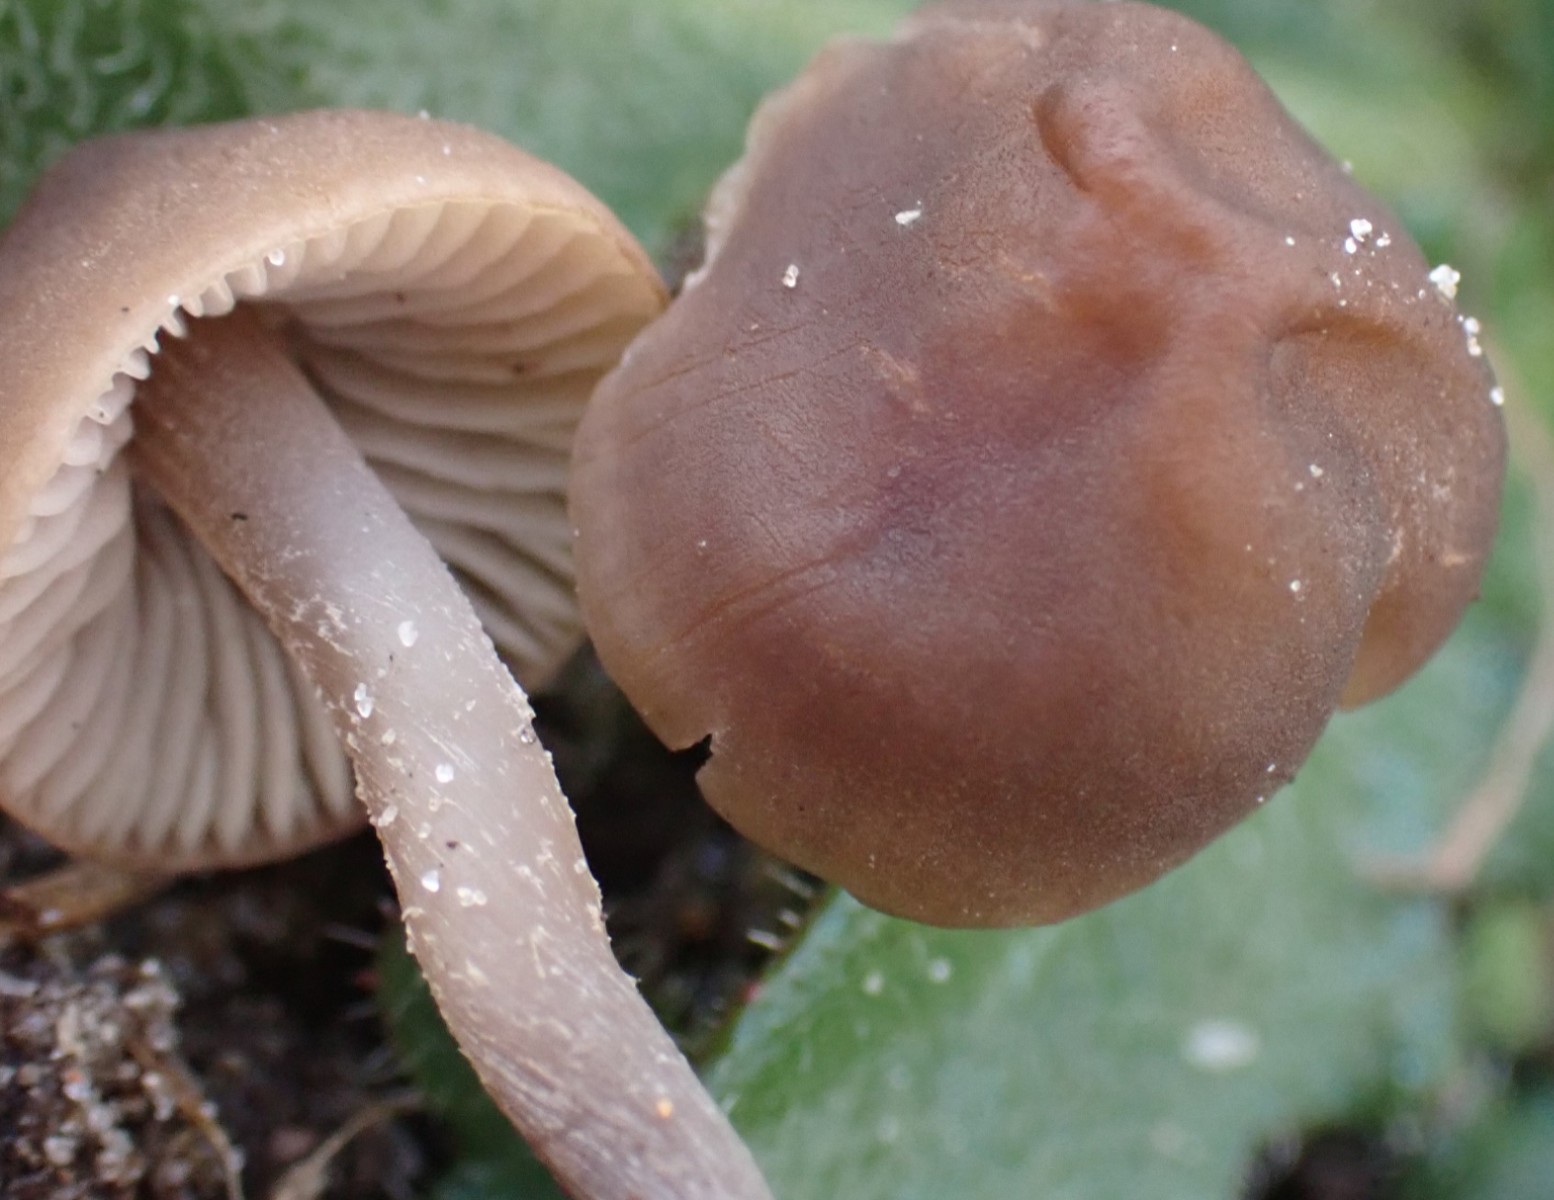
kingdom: Fungi
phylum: Basidiomycota
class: Agaricomycetes
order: Agaricales
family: Tricholomataceae
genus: Dermoloma
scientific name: Dermoloma pseudocuneifolium
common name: mark-nonnehat
